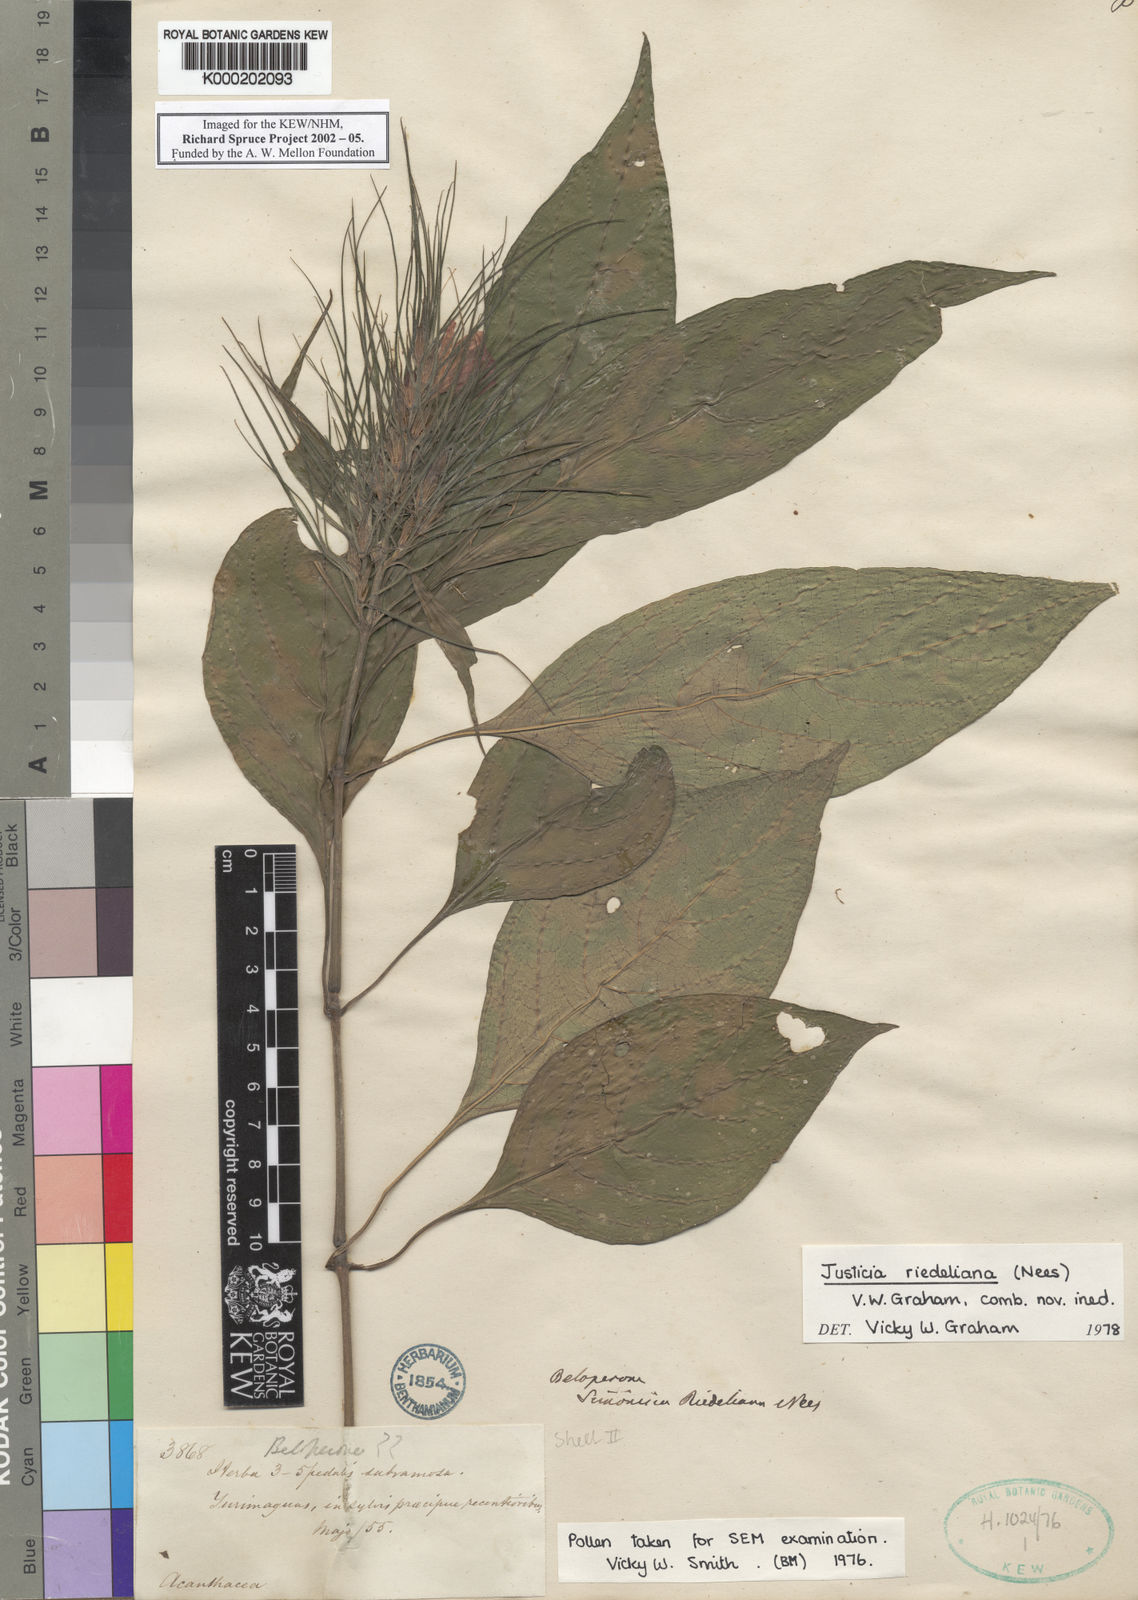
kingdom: Plantae
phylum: Tracheophyta
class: Magnoliopsida
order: Lamiales
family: Acanthaceae
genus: Justicia
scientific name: Justicia riedeliana
